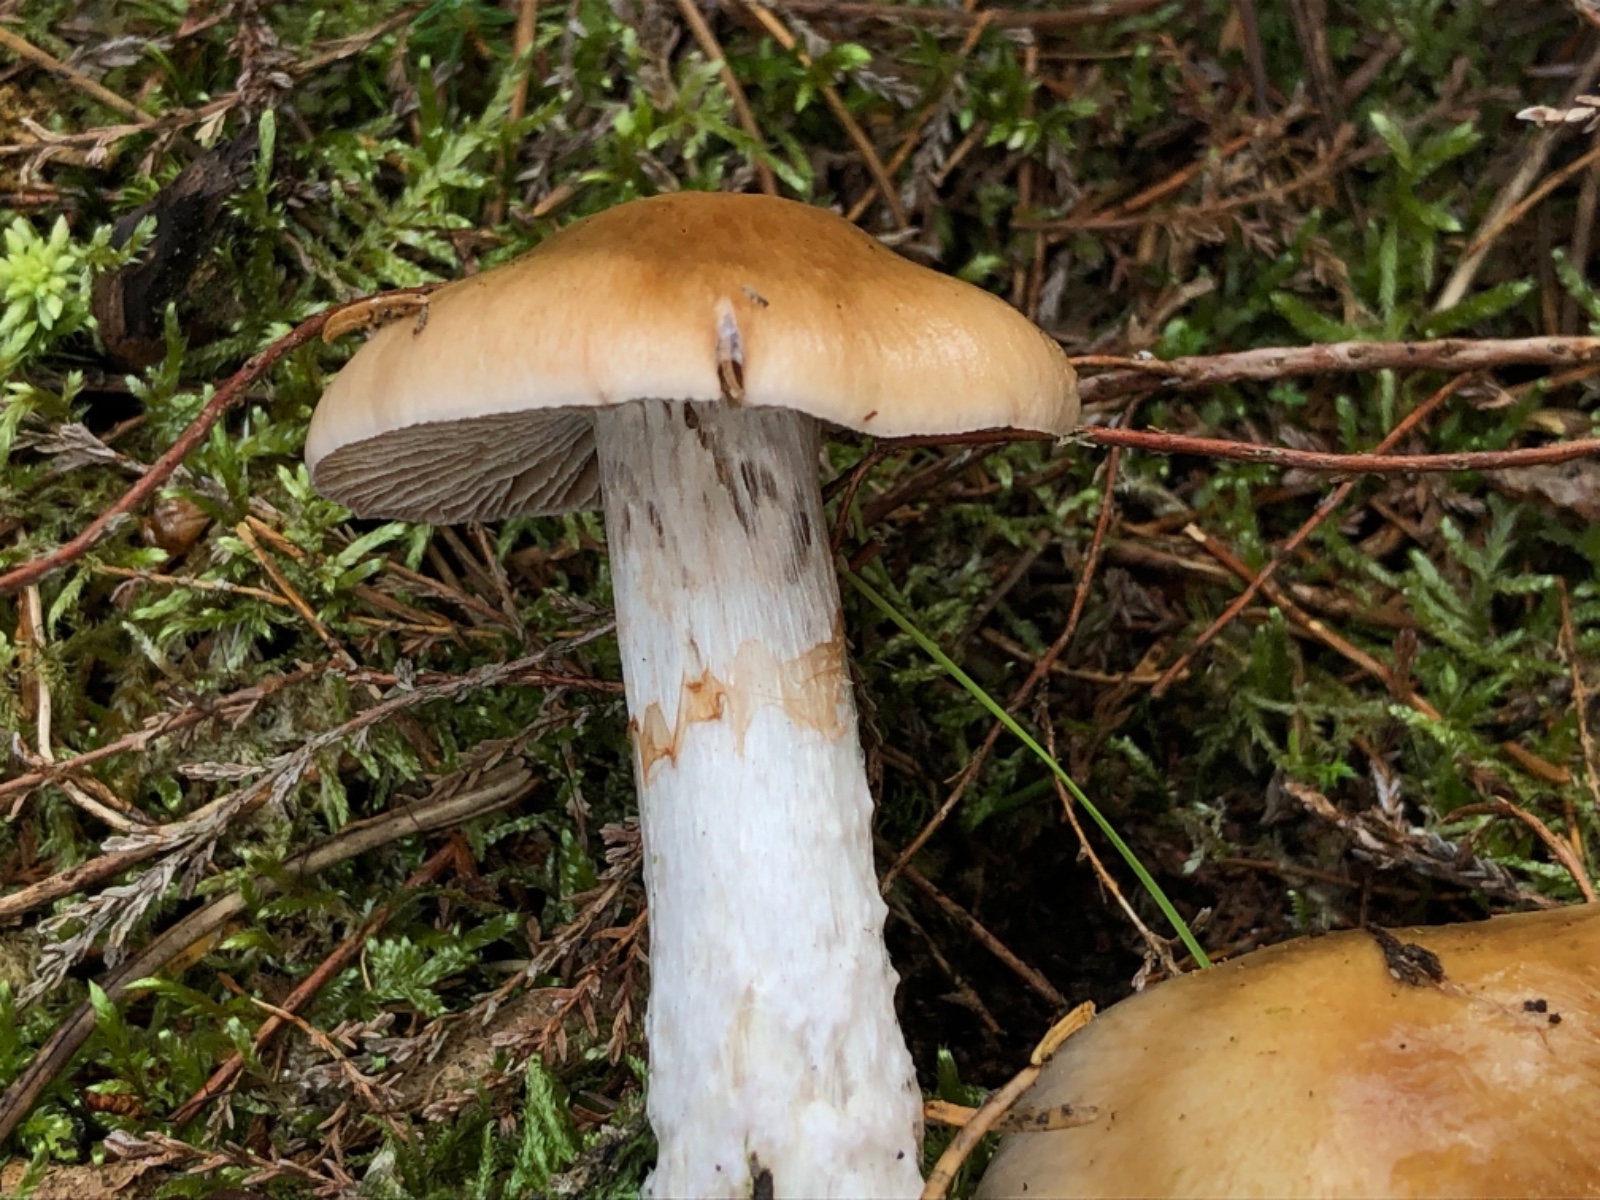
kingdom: Fungi
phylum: Basidiomycota
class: Agaricomycetes
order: Agaricales
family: Cortinariaceae
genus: Cortinarius
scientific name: Cortinarius mucifluus
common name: rynket slørhat
